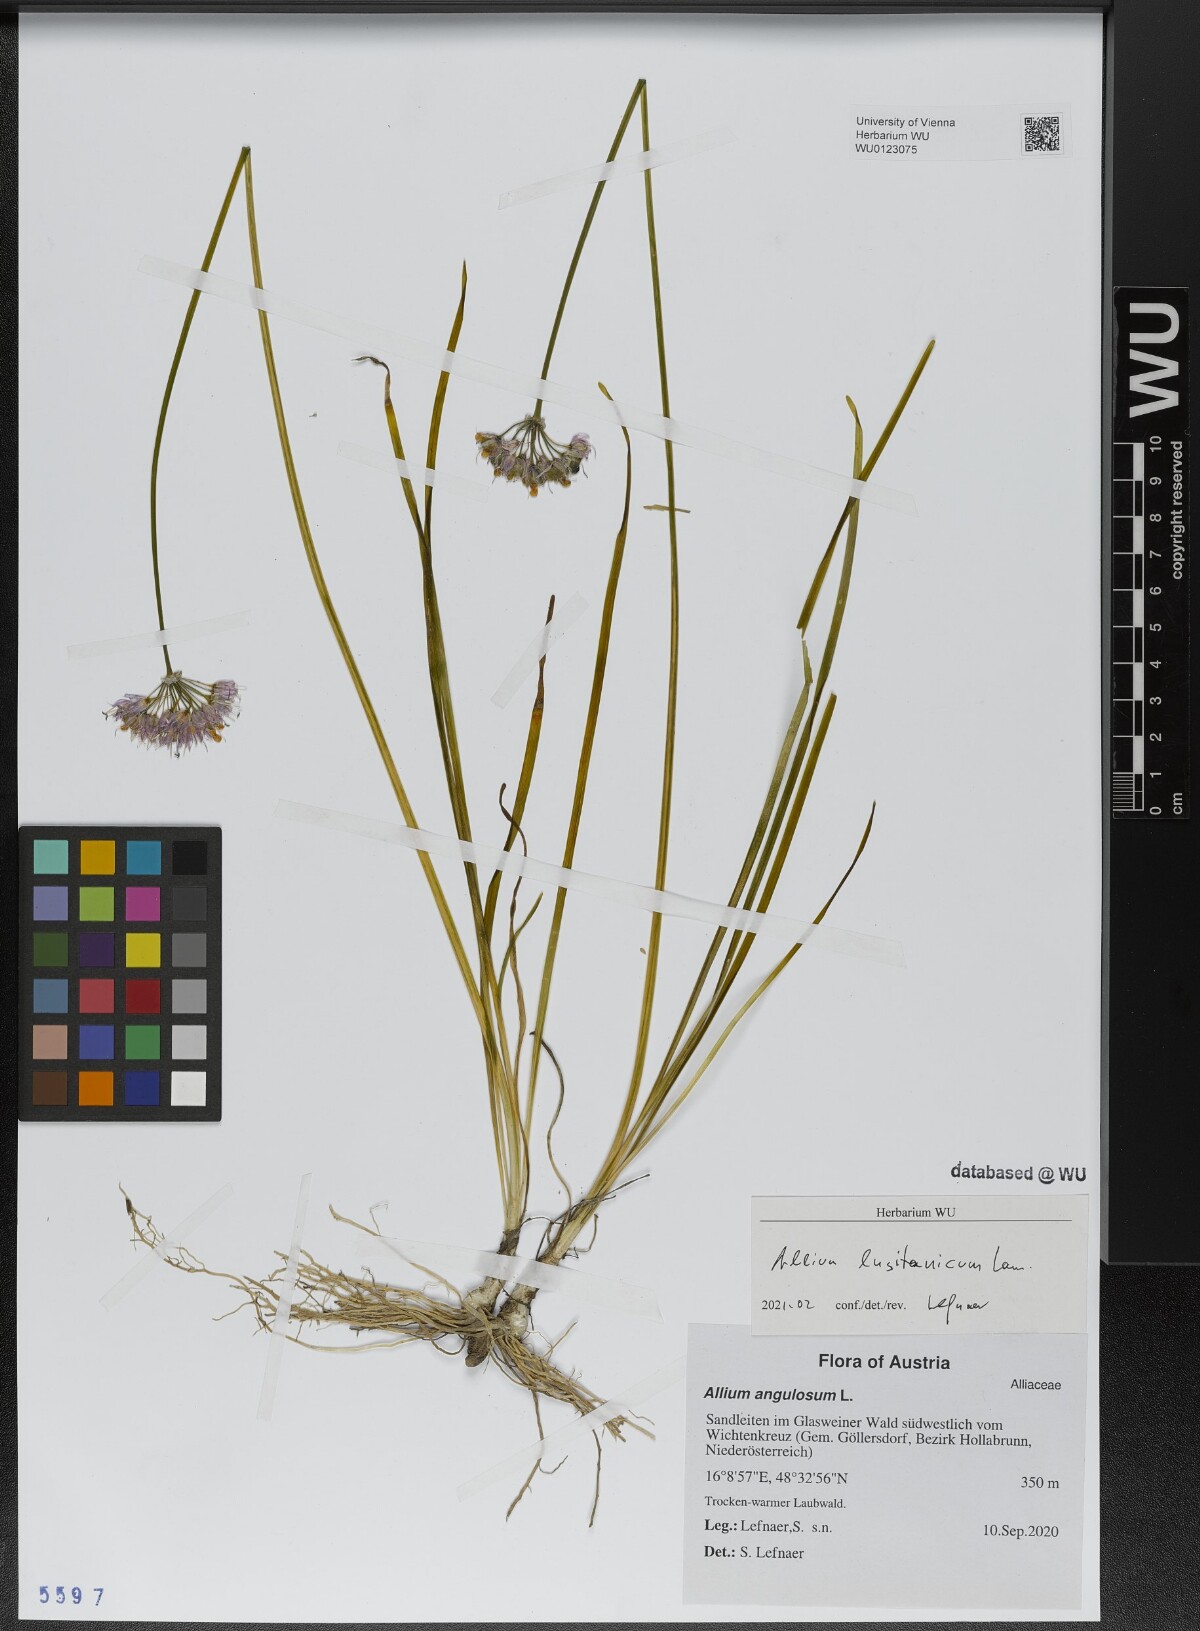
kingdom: Plantae
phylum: Tracheophyta
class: Liliopsida
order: Asparagales
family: Amaryllidaceae
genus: Allium
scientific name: Allium lusitanicum
